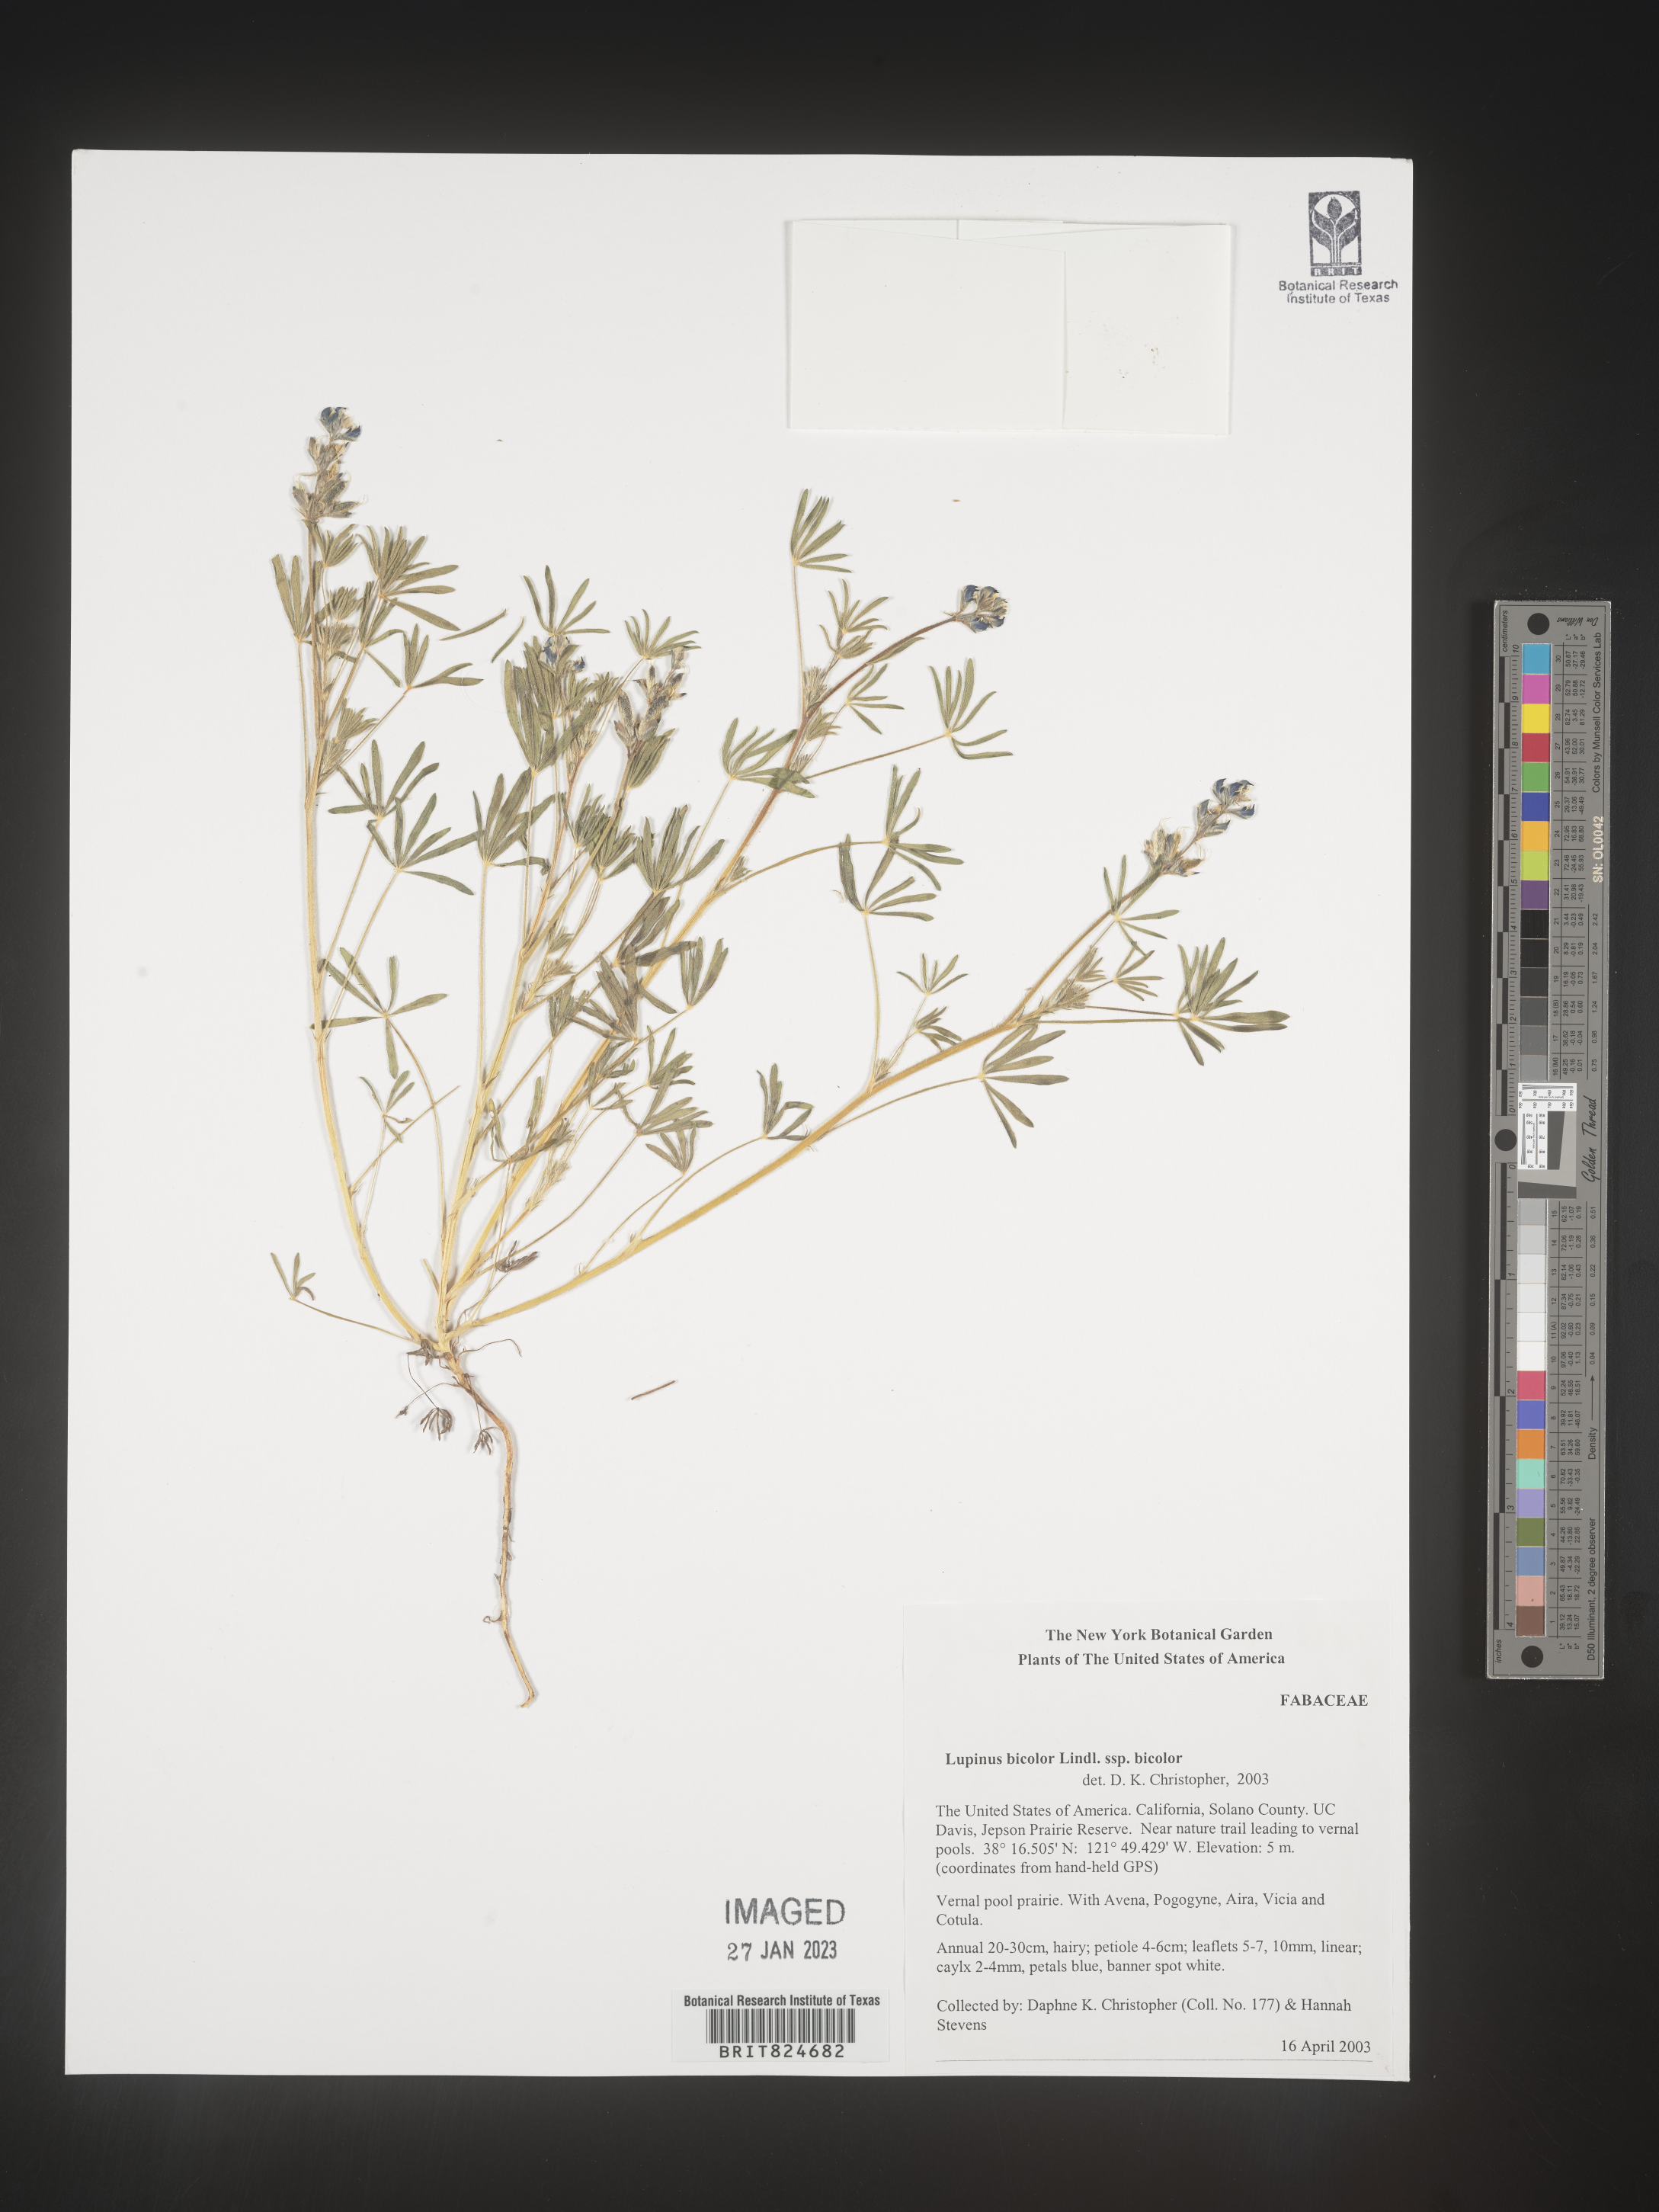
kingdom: Plantae
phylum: Tracheophyta
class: Magnoliopsida
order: Fabales
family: Fabaceae
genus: Lupinus
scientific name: Lupinus bicolor
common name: Miniature lupine
